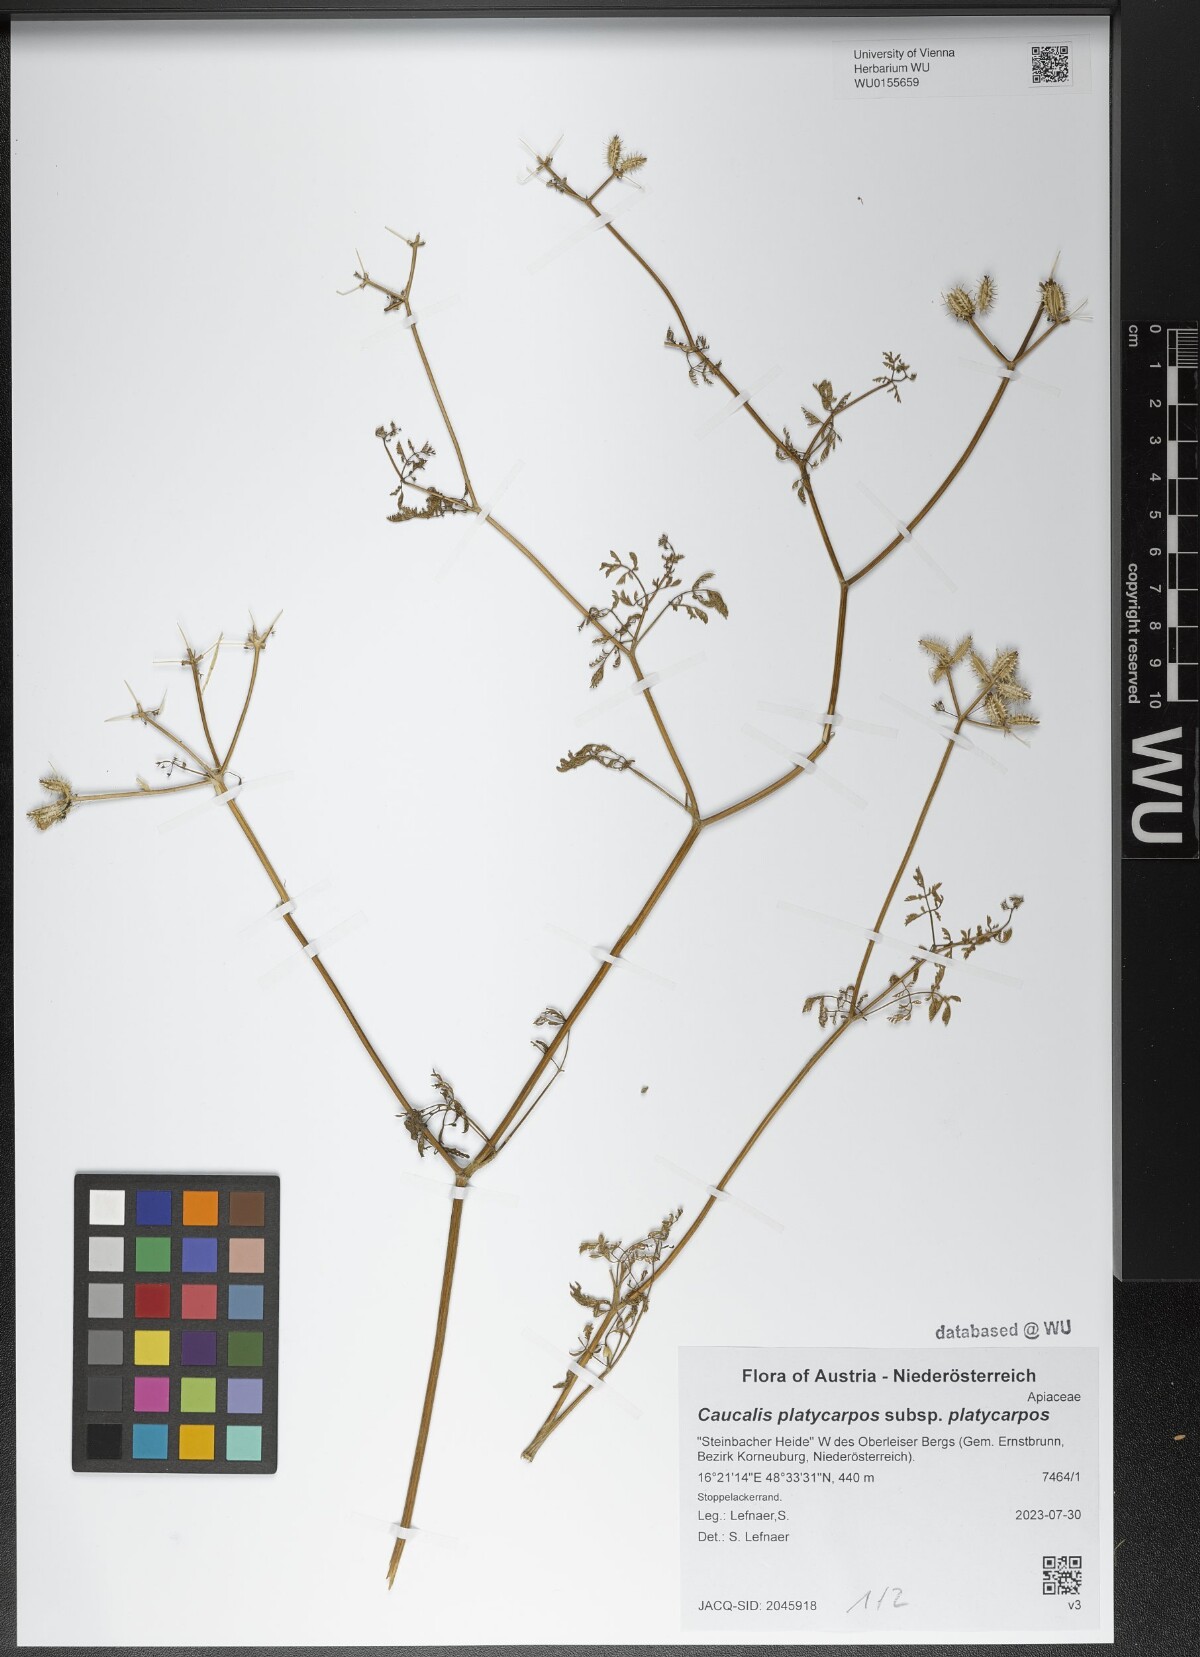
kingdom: Plantae
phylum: Tracheophyta
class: Magnoliopsida
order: Apiales
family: Apiaceae
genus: Caucalis
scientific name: Caucalis platycarpos
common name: Small bur-parsley
